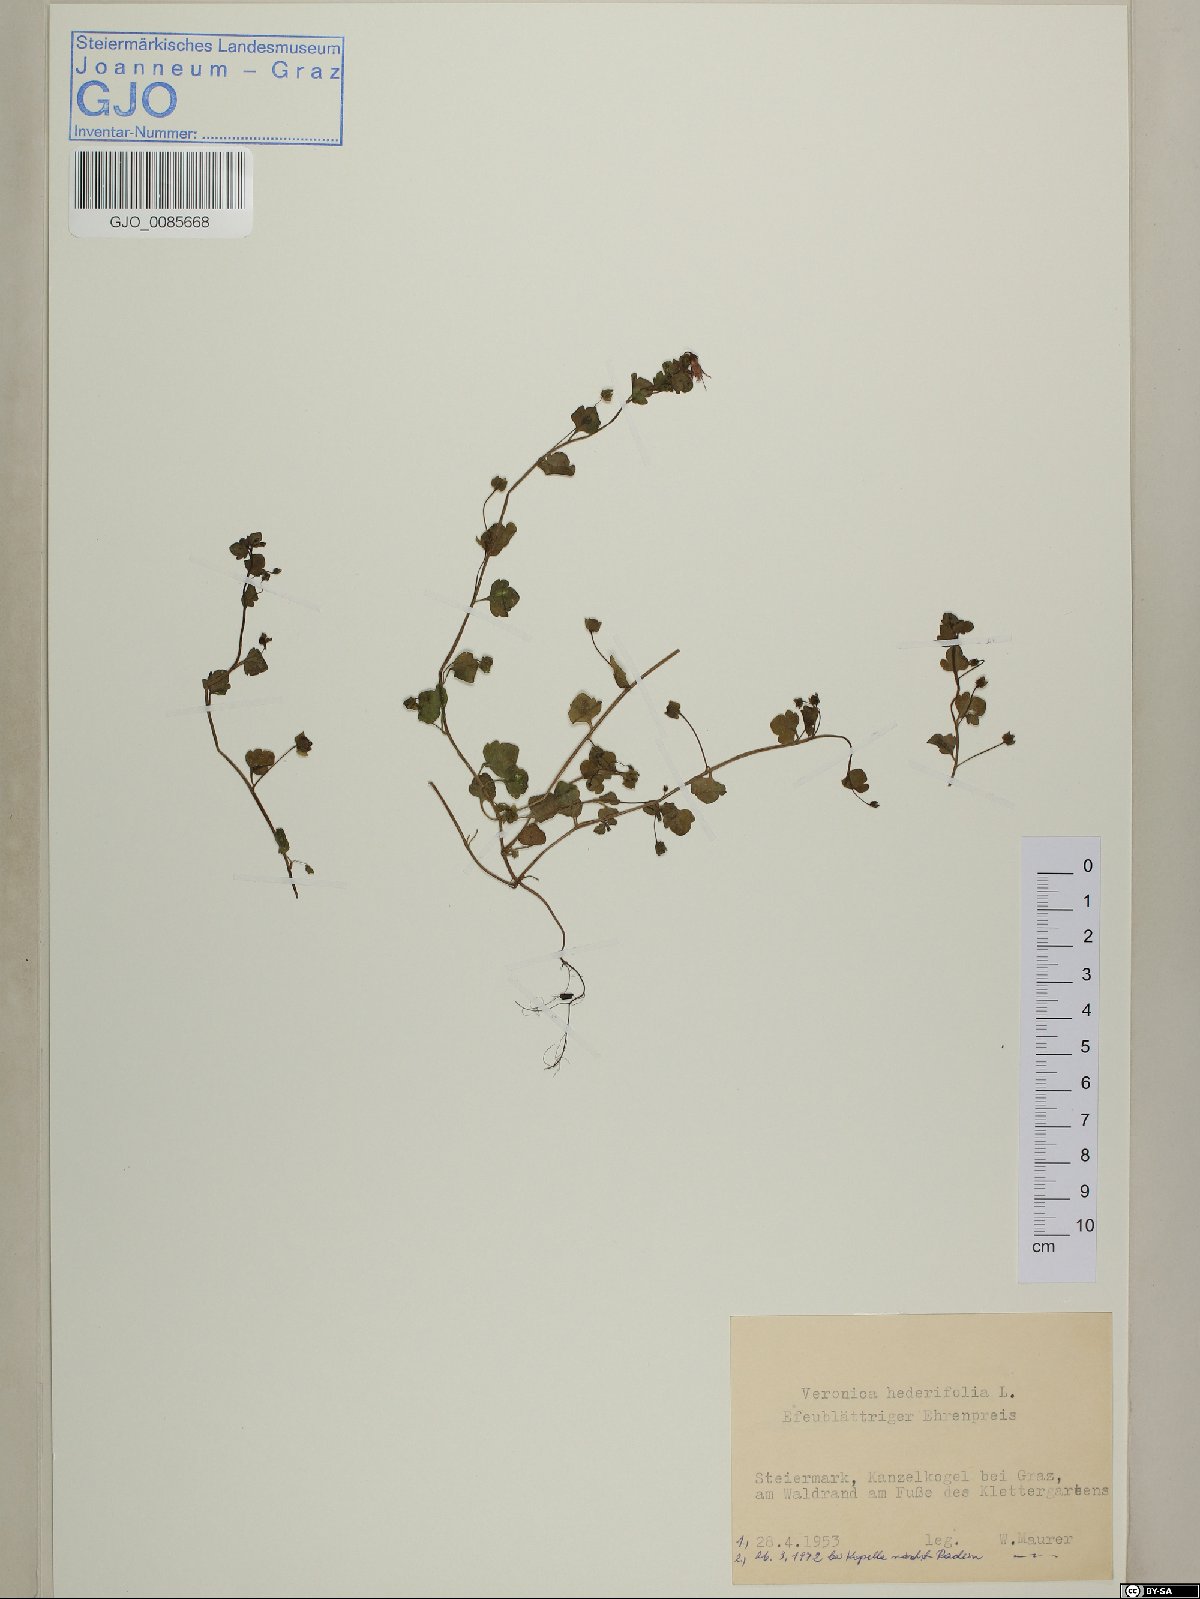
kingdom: Plantae
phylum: Tracheophyta
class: Magnoliopsida
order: Lamiales
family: Plantaginaceae
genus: Veronica
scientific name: Veronica hederifolia
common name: Ivy-leaved speedwell
